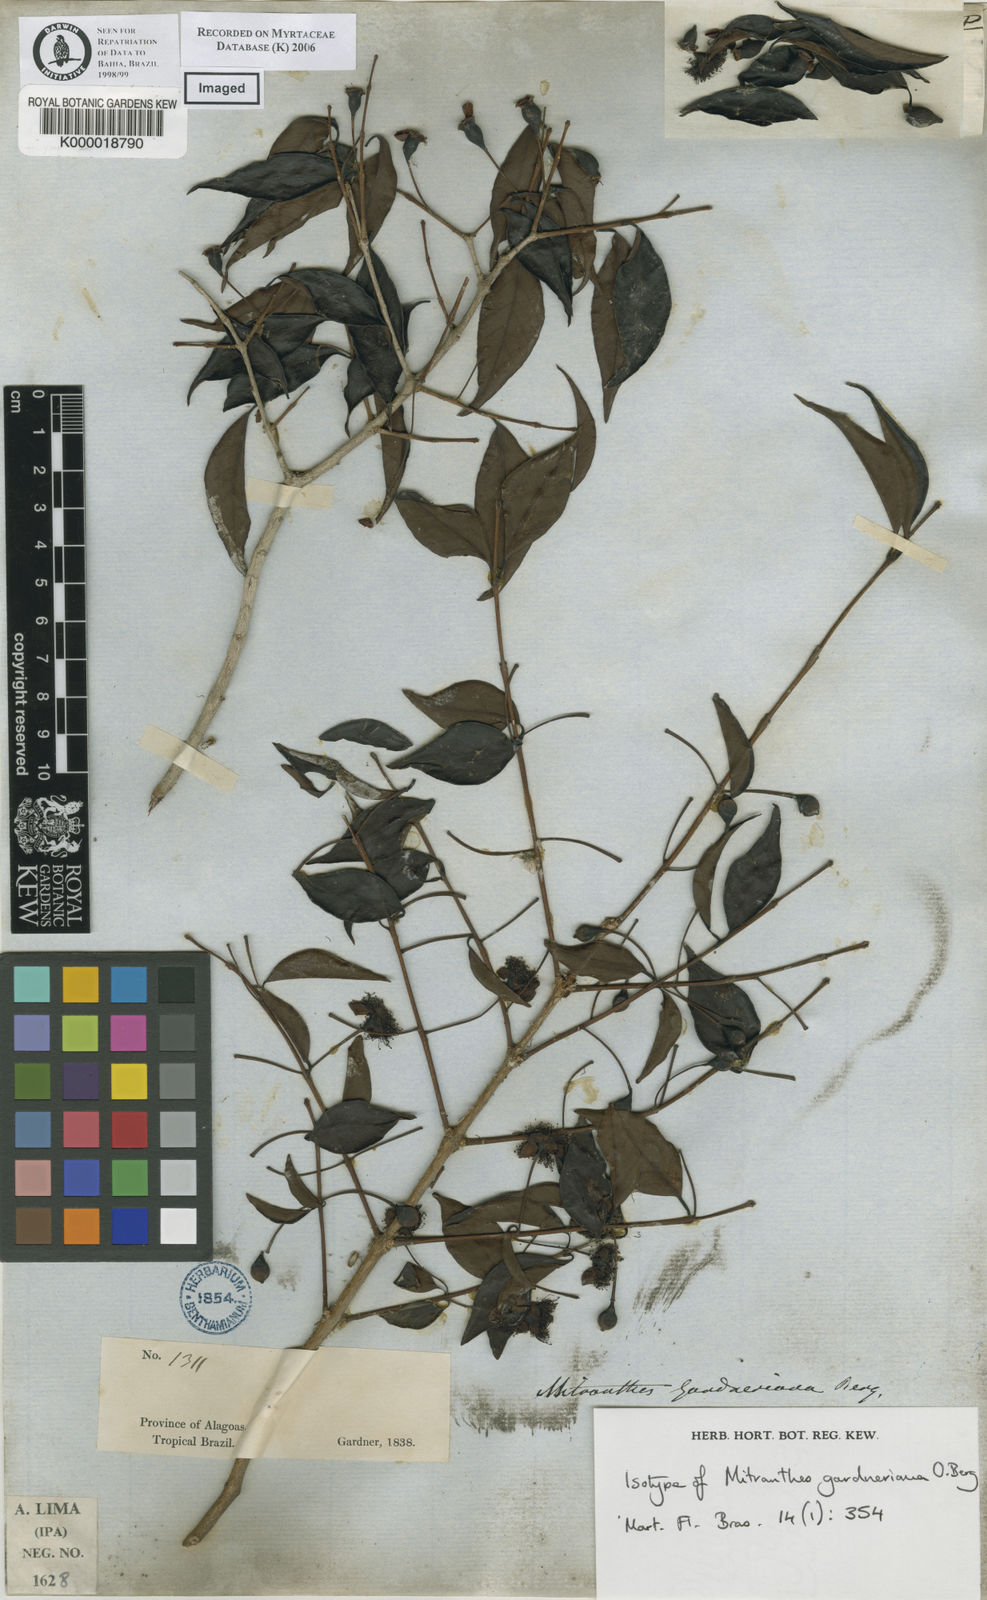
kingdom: Plantae
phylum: Tracheophyta
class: Magnoliopsida
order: Myrtales
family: Myrtaceae
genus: Psidium
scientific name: Psidium oligospermum
